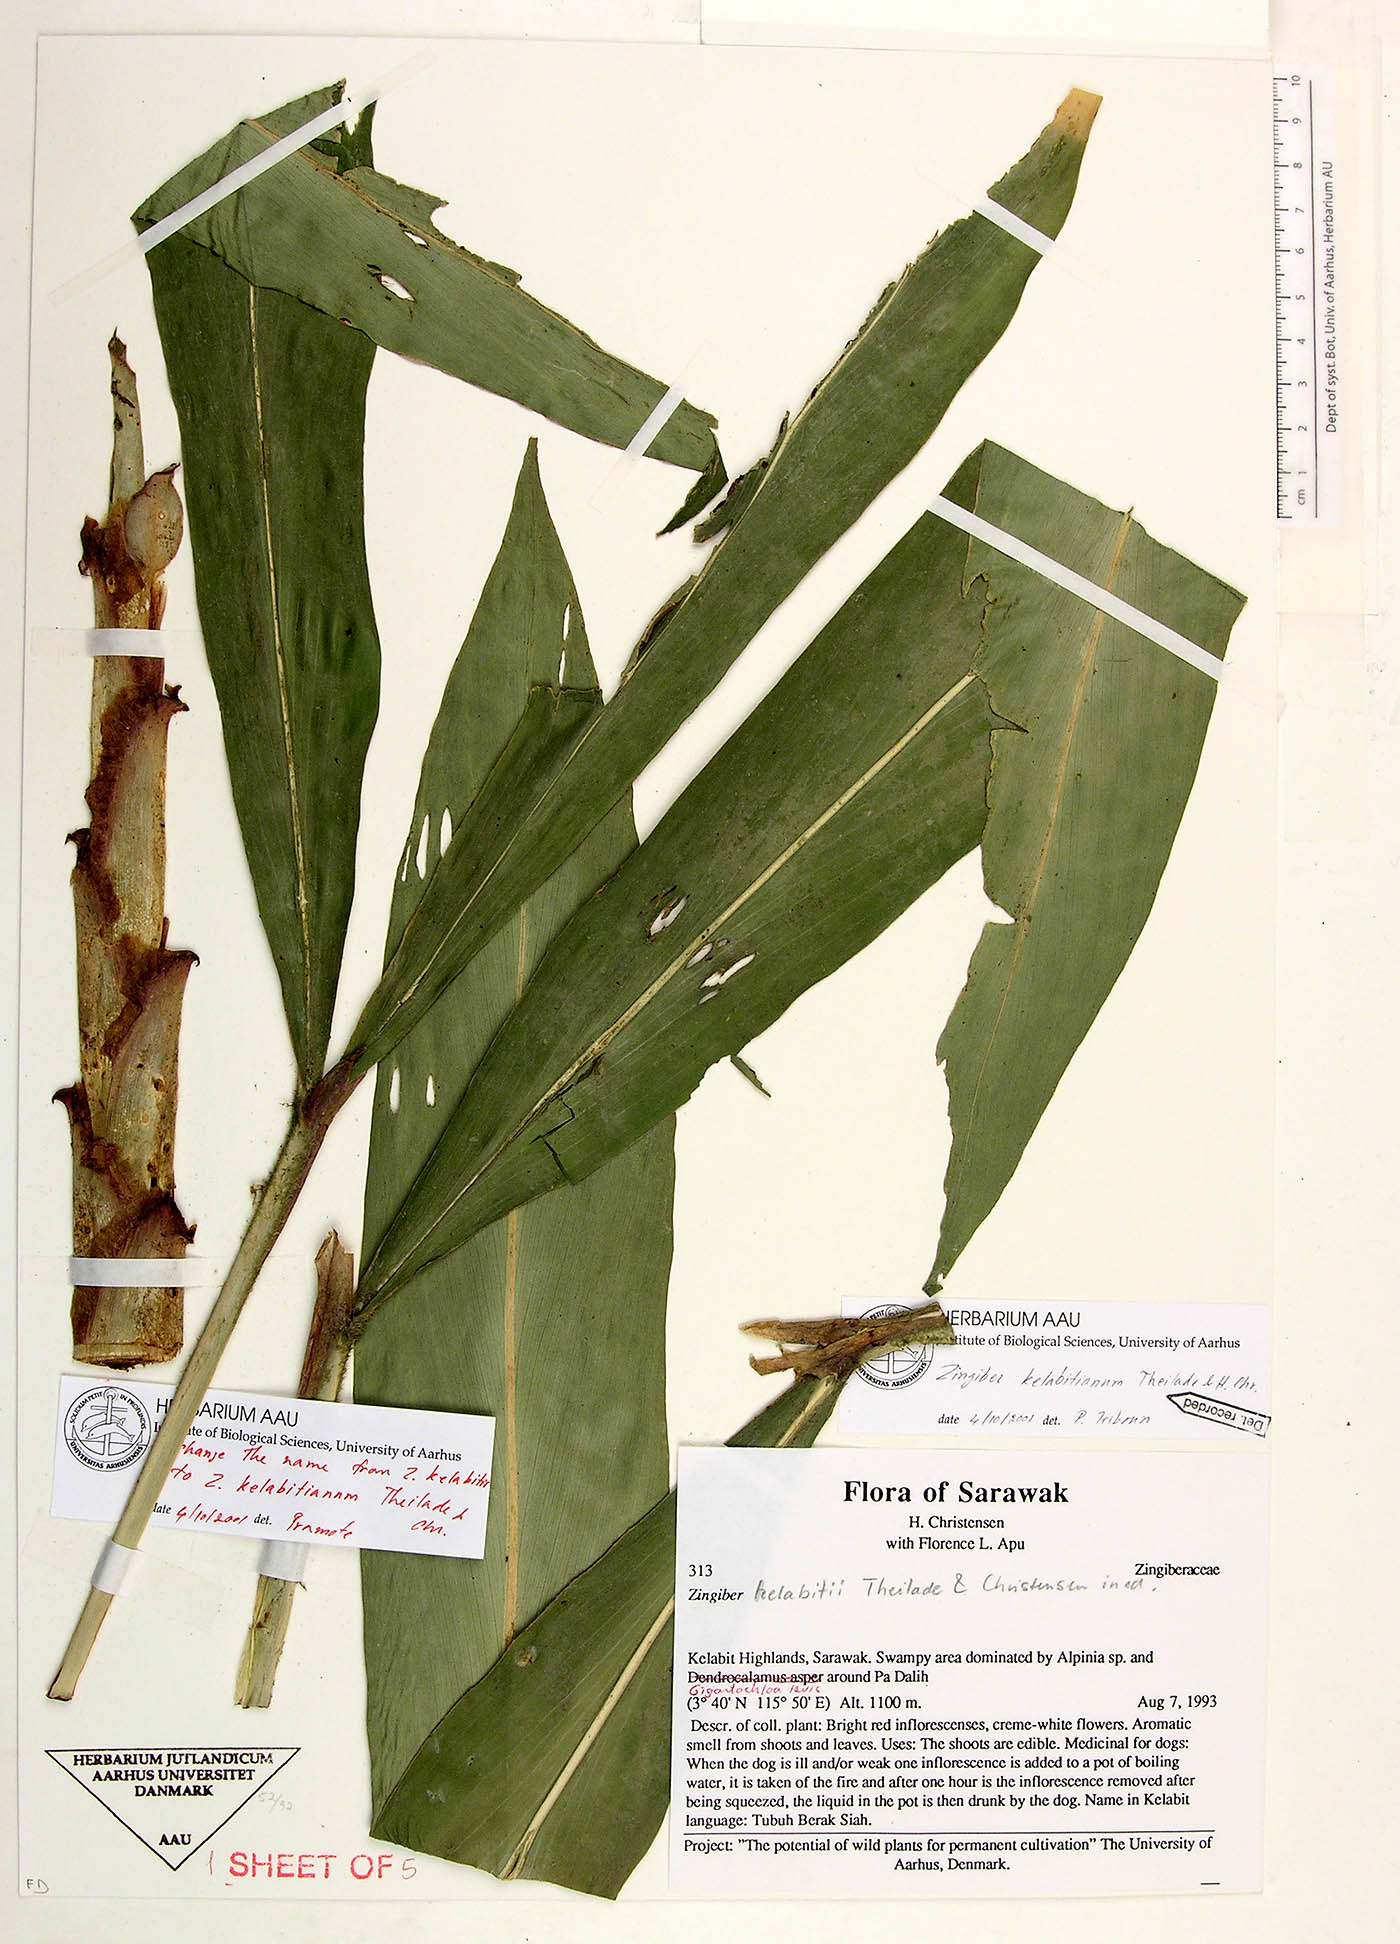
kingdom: Plantae
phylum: Tracheophyta
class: Liliopsida
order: Zingiberales
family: Zingiberaceae
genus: Zingiber
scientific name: Zingiber kelabitianum
